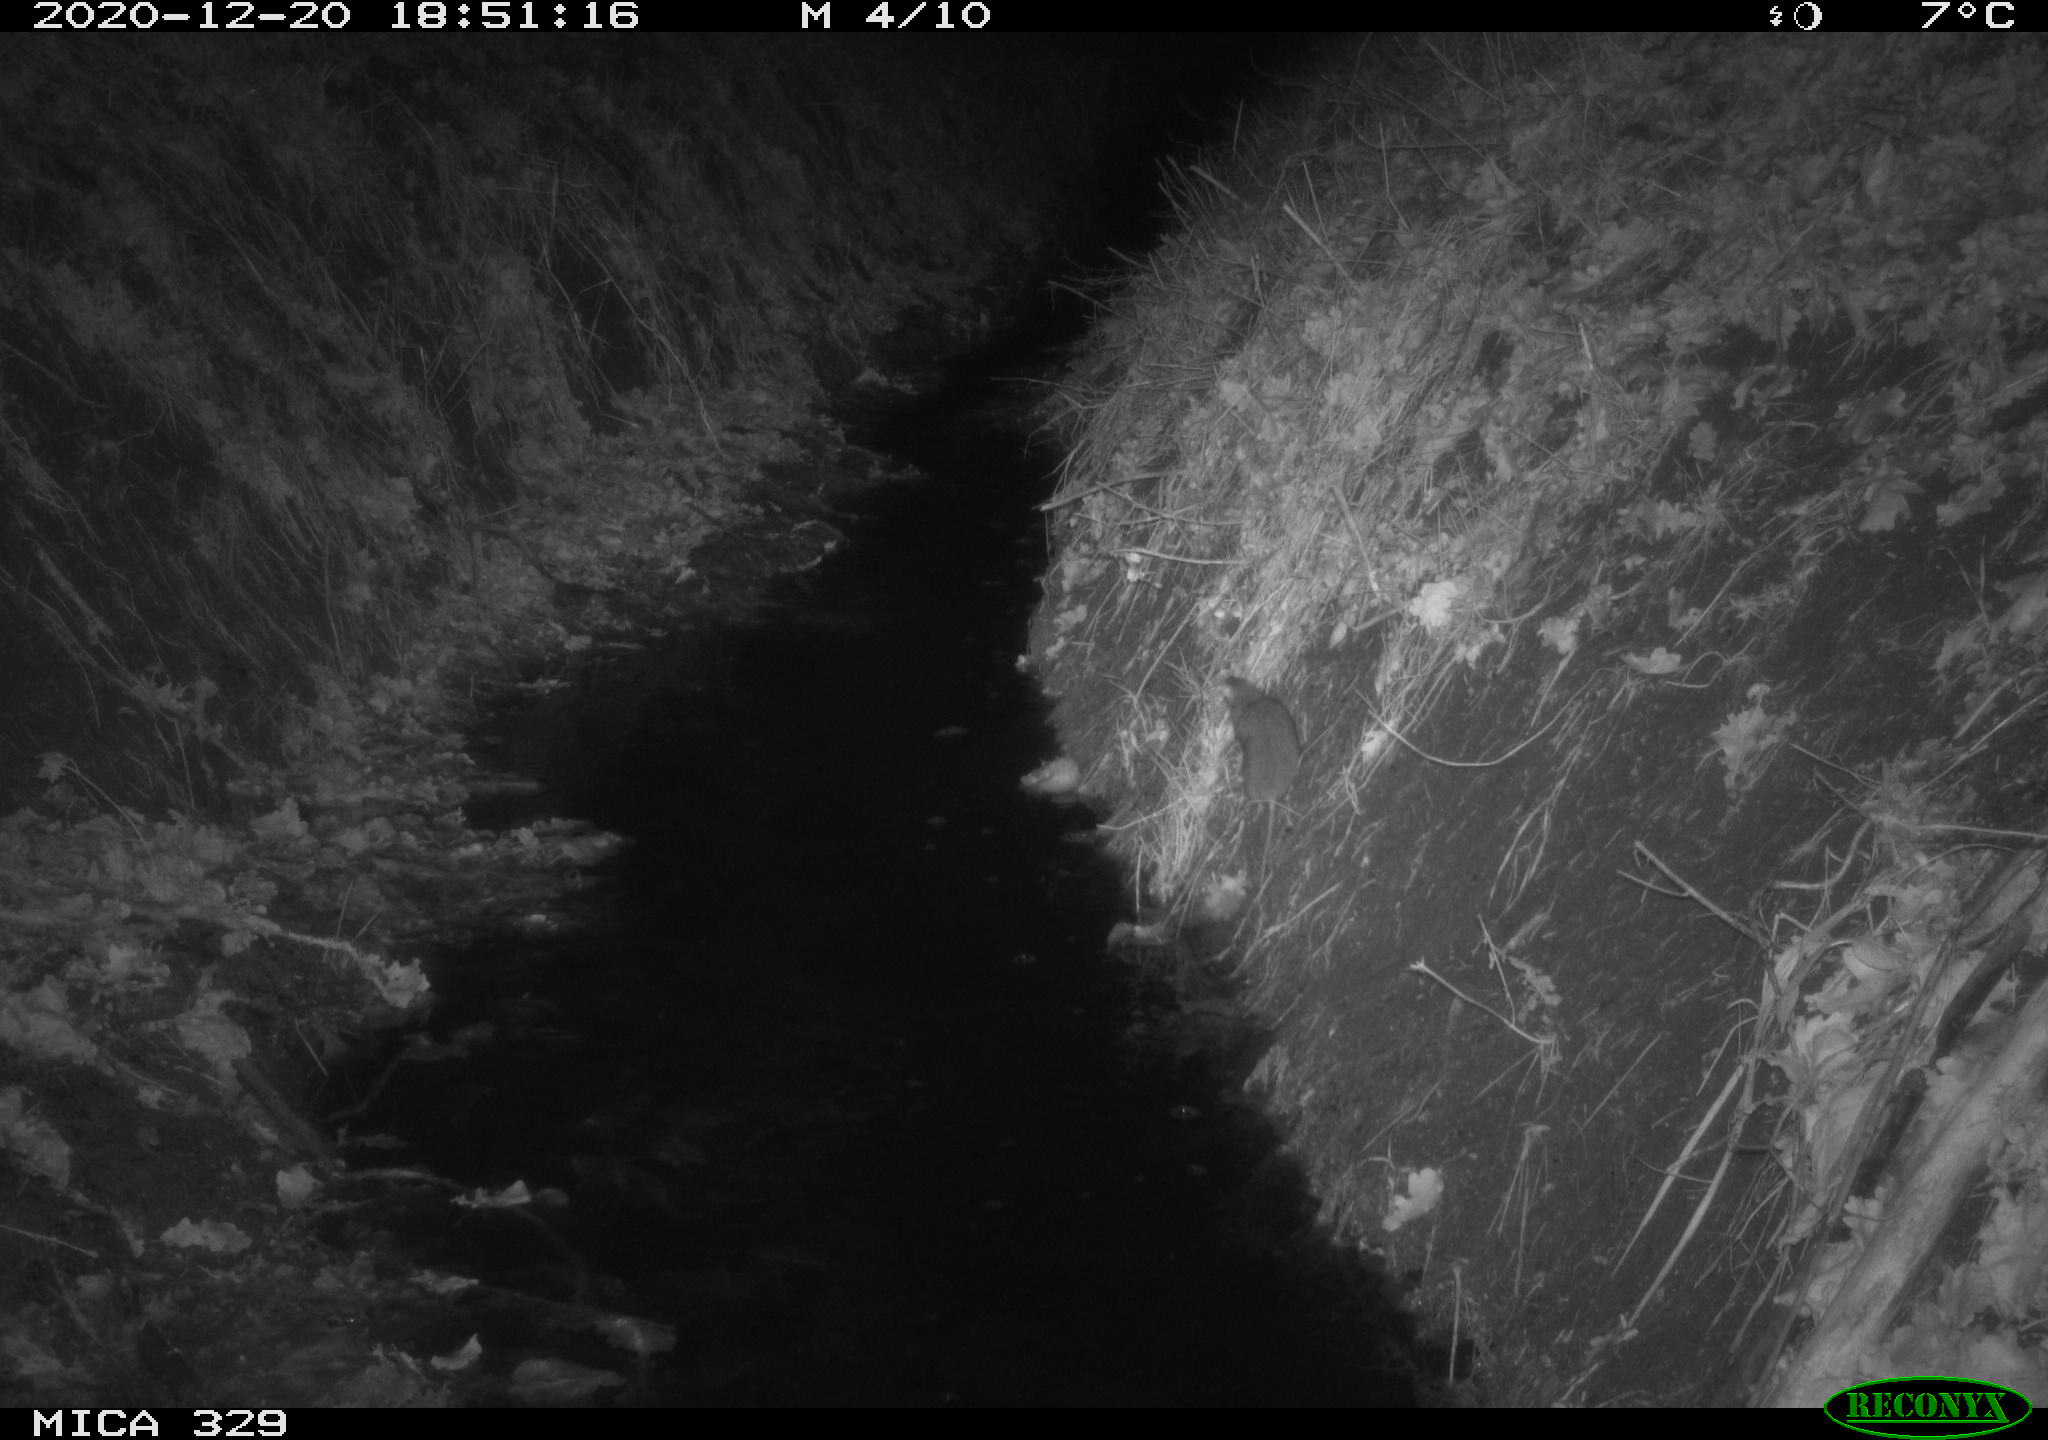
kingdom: Animalia
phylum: Chordata
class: Mammalia
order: Rodentia
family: Muridae
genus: Rattus
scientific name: Rattus norvegicus
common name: Brown rat
